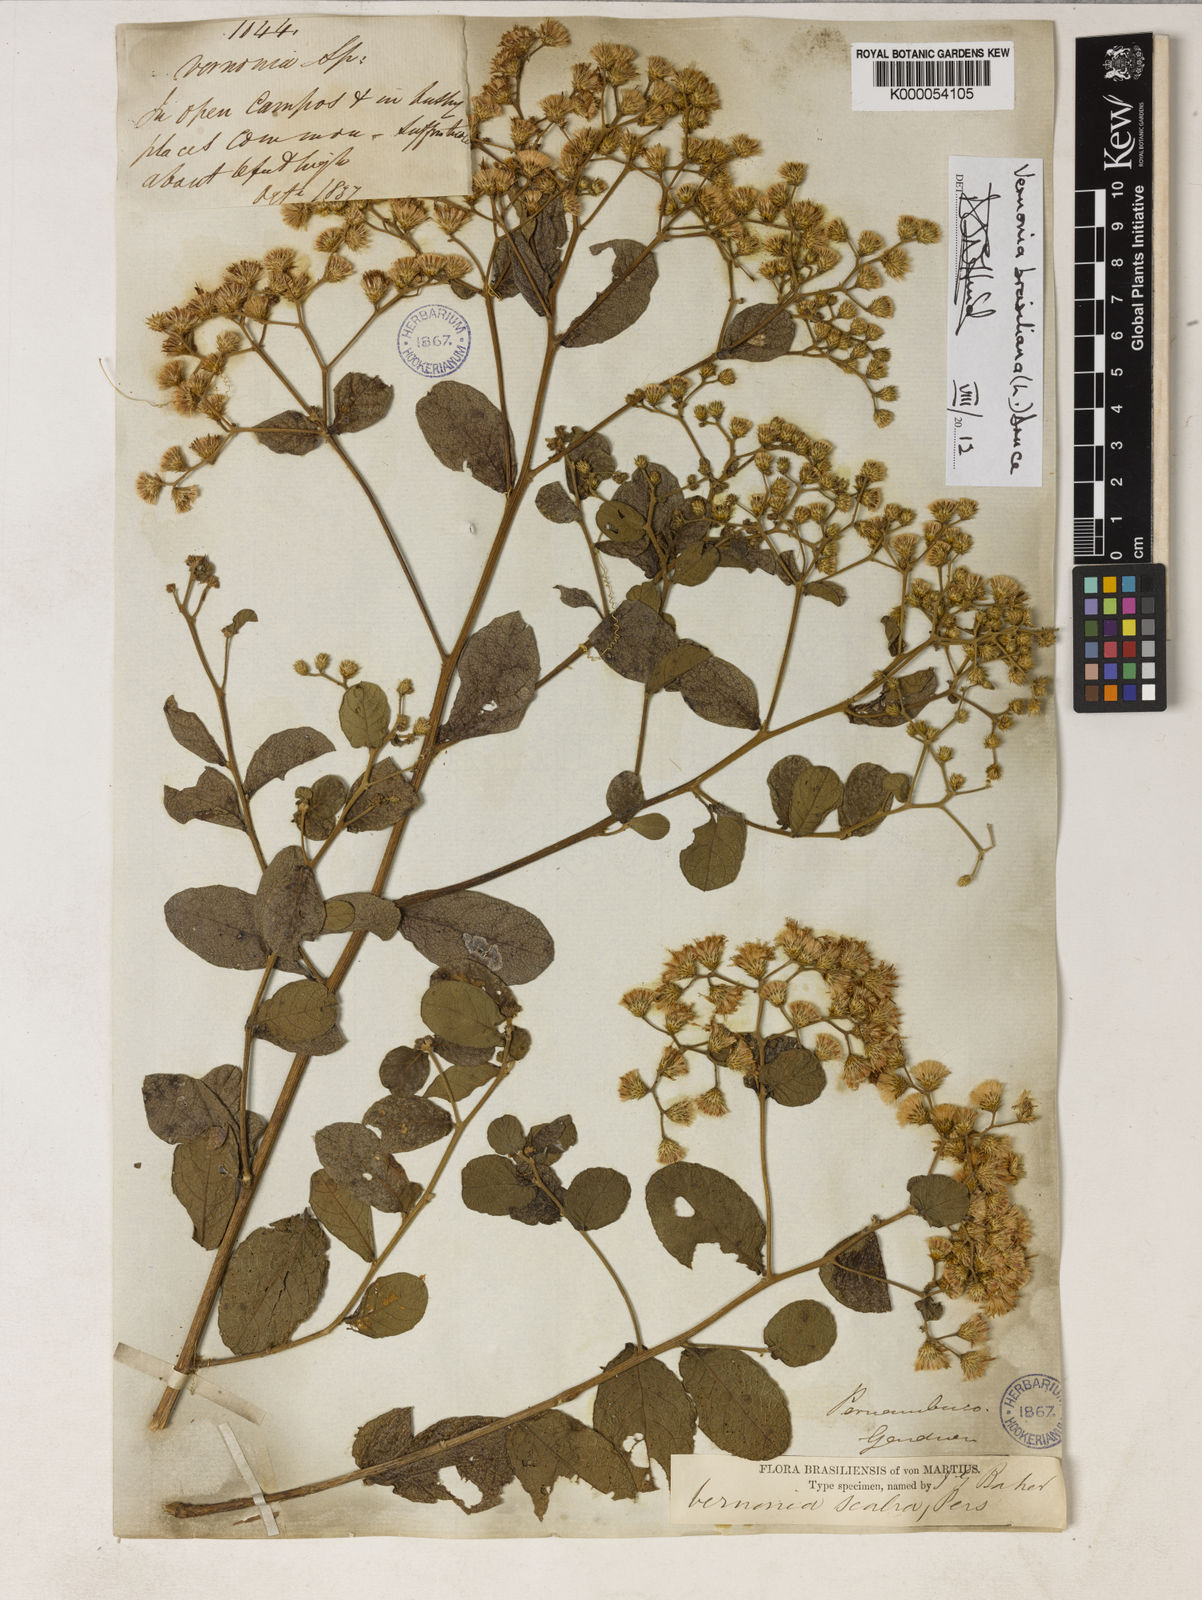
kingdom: Plantae
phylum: Tracheophyta
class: Magnoliopsida
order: Asterales
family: Asteraceae
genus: Vernonanthura
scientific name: Vernonanthura brasiliana
